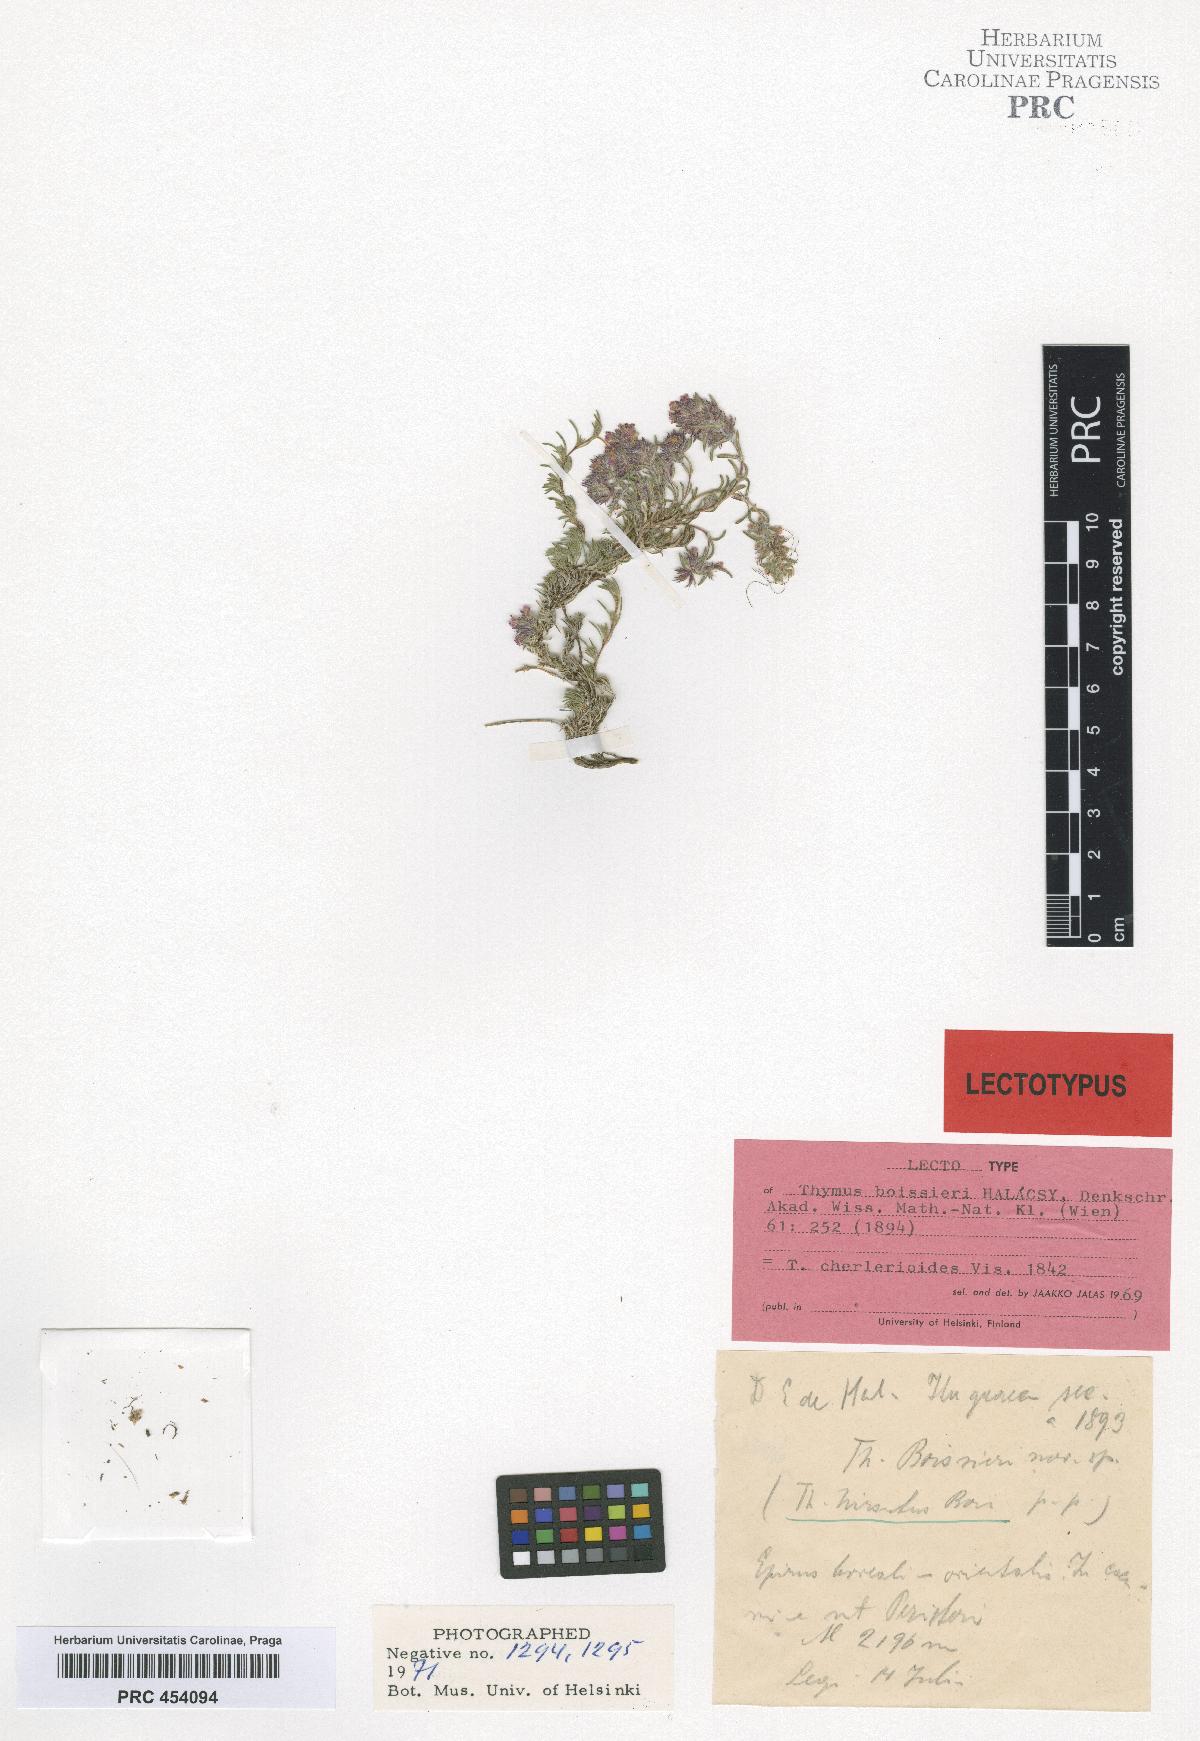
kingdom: Plantae
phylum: Tracheophyta
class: Magnoliopsida
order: Lamiales
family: Lamiaceae
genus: Thymus
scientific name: Thymus boissieri
